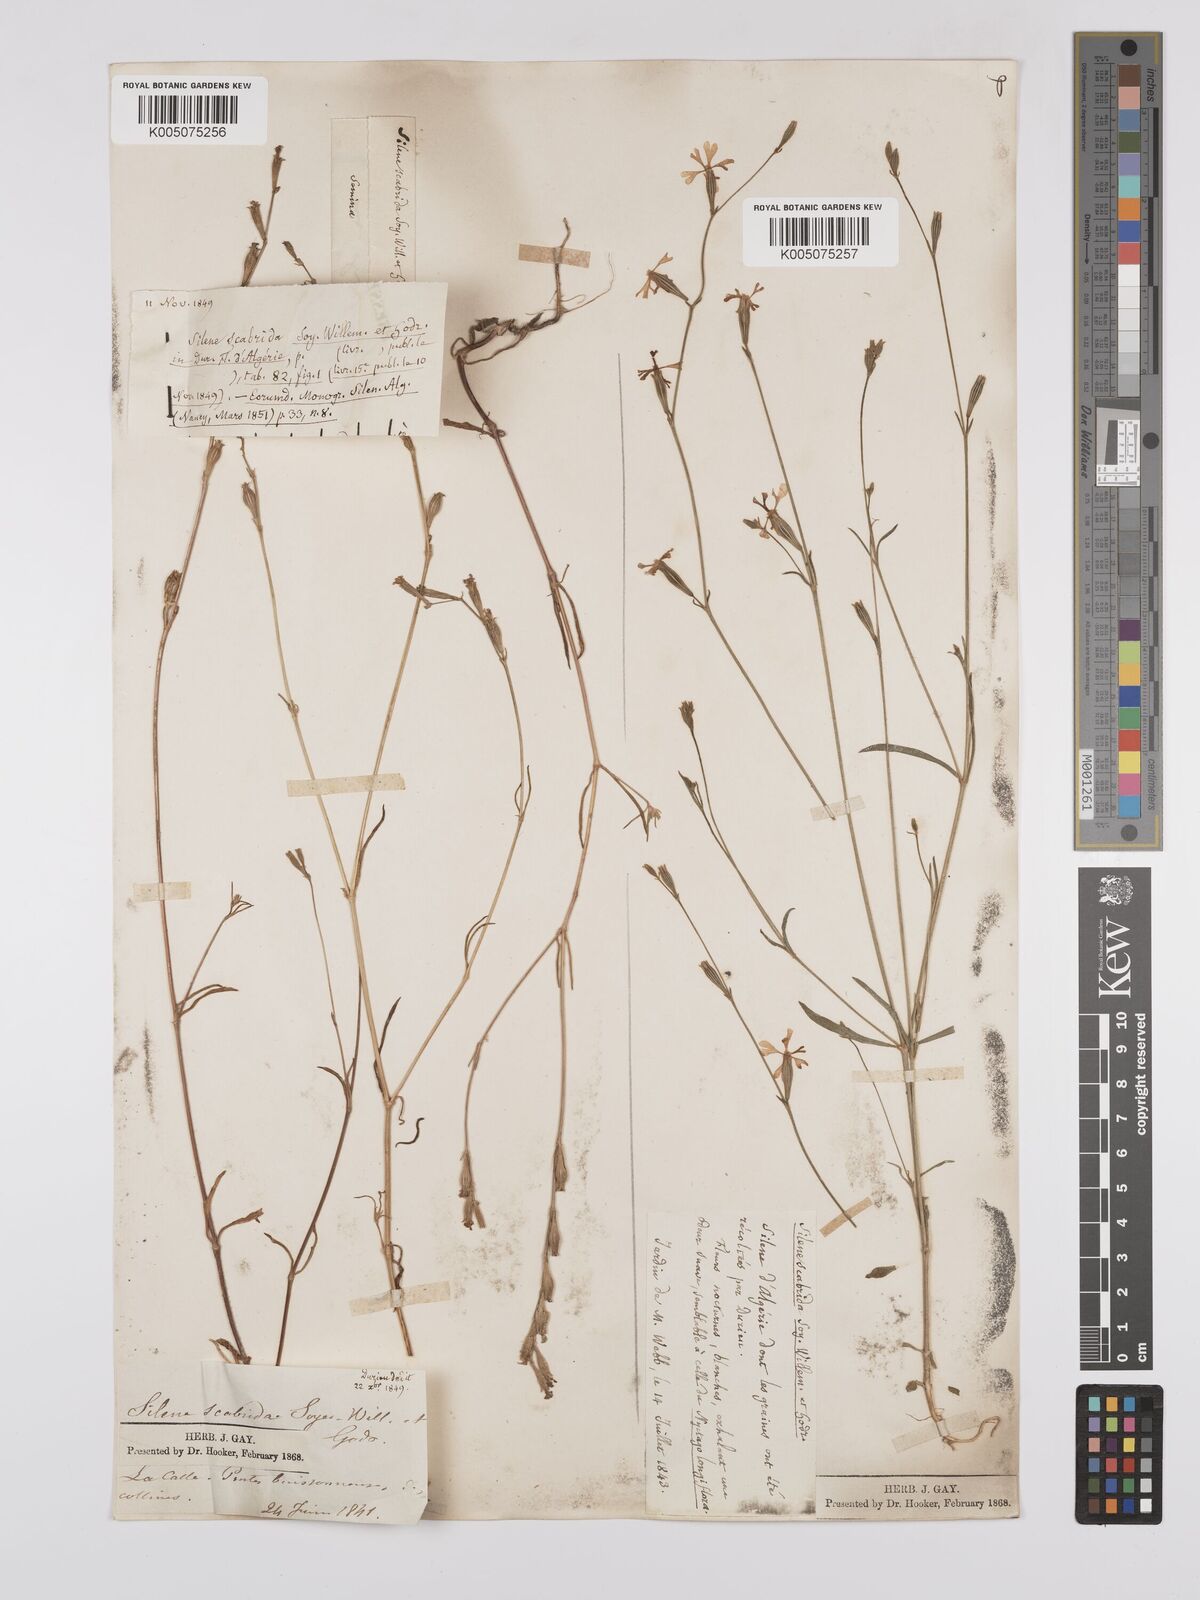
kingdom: Plantae
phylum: Tracheophyta
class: Magnoliopsida
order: Caryophyllales
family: Caryophyllaceae
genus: Silene
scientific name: Silene scabrida
